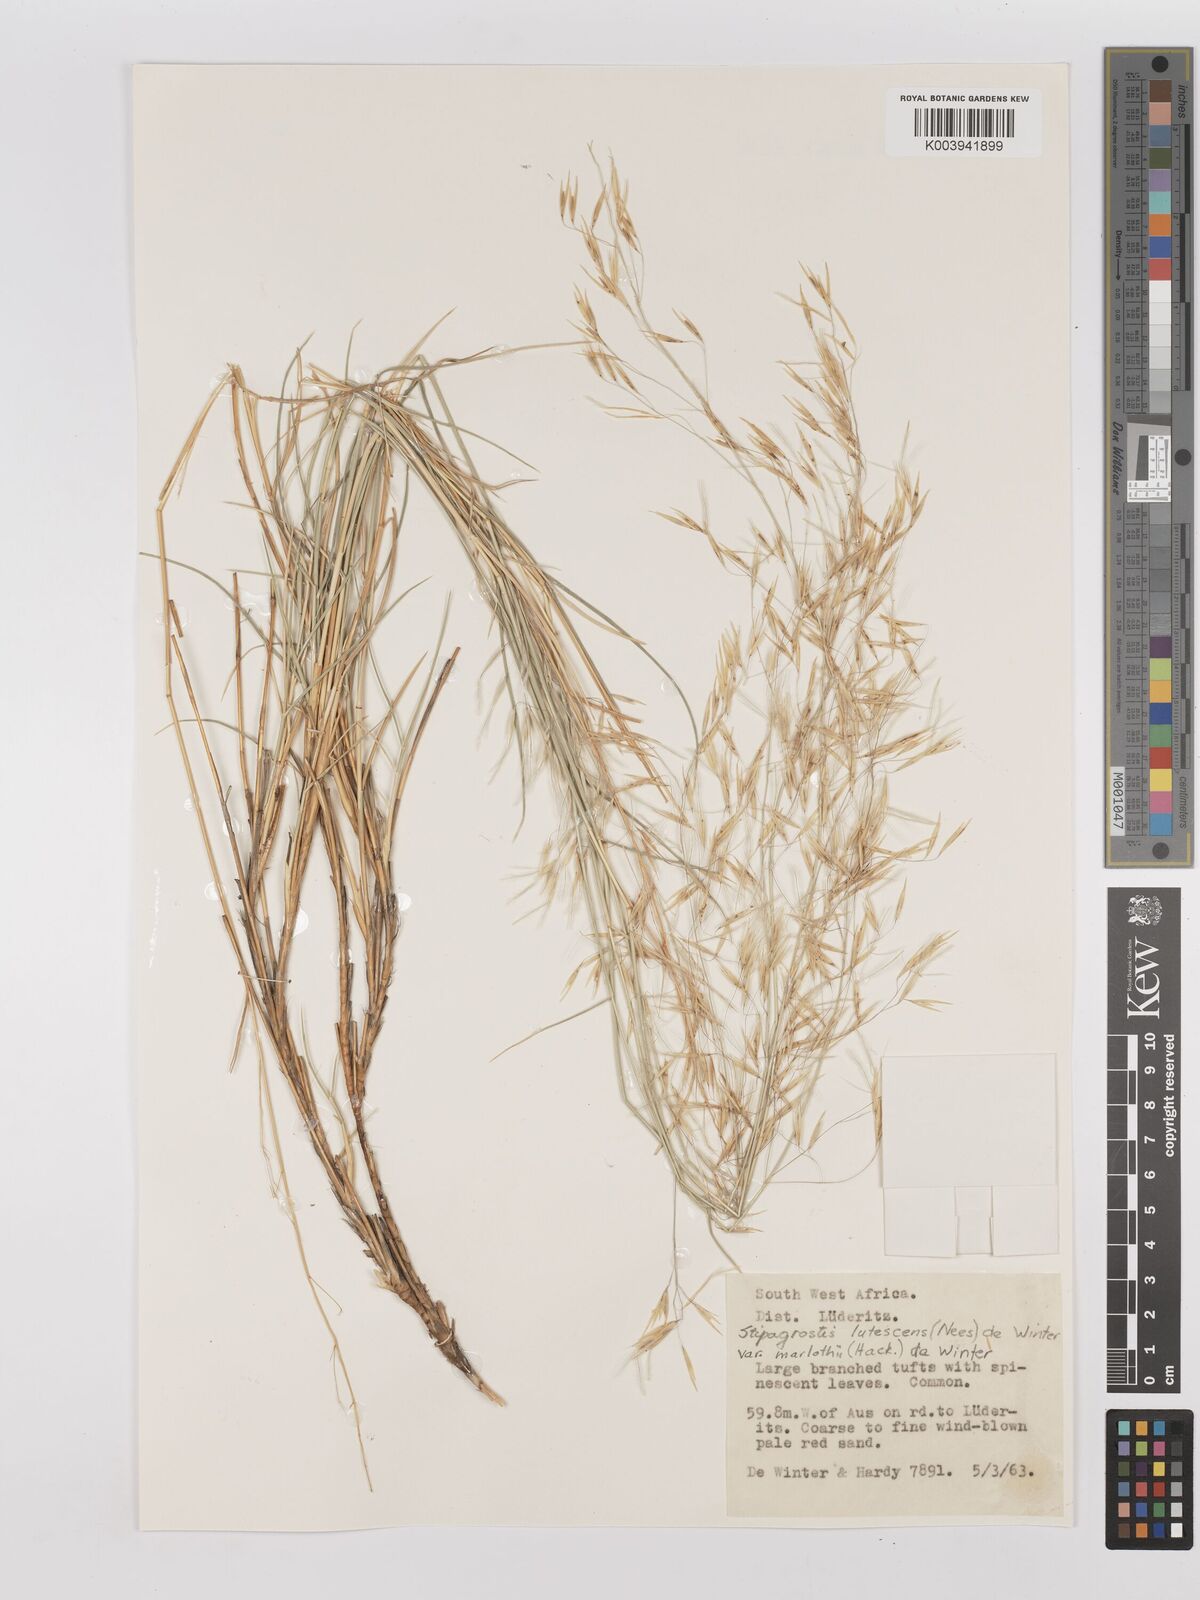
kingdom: Plantae
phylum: Tracheophyta
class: Liliopsida
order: Poales
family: Poaceae
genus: Stipagrostis
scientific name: Stipagrostis lutescens
